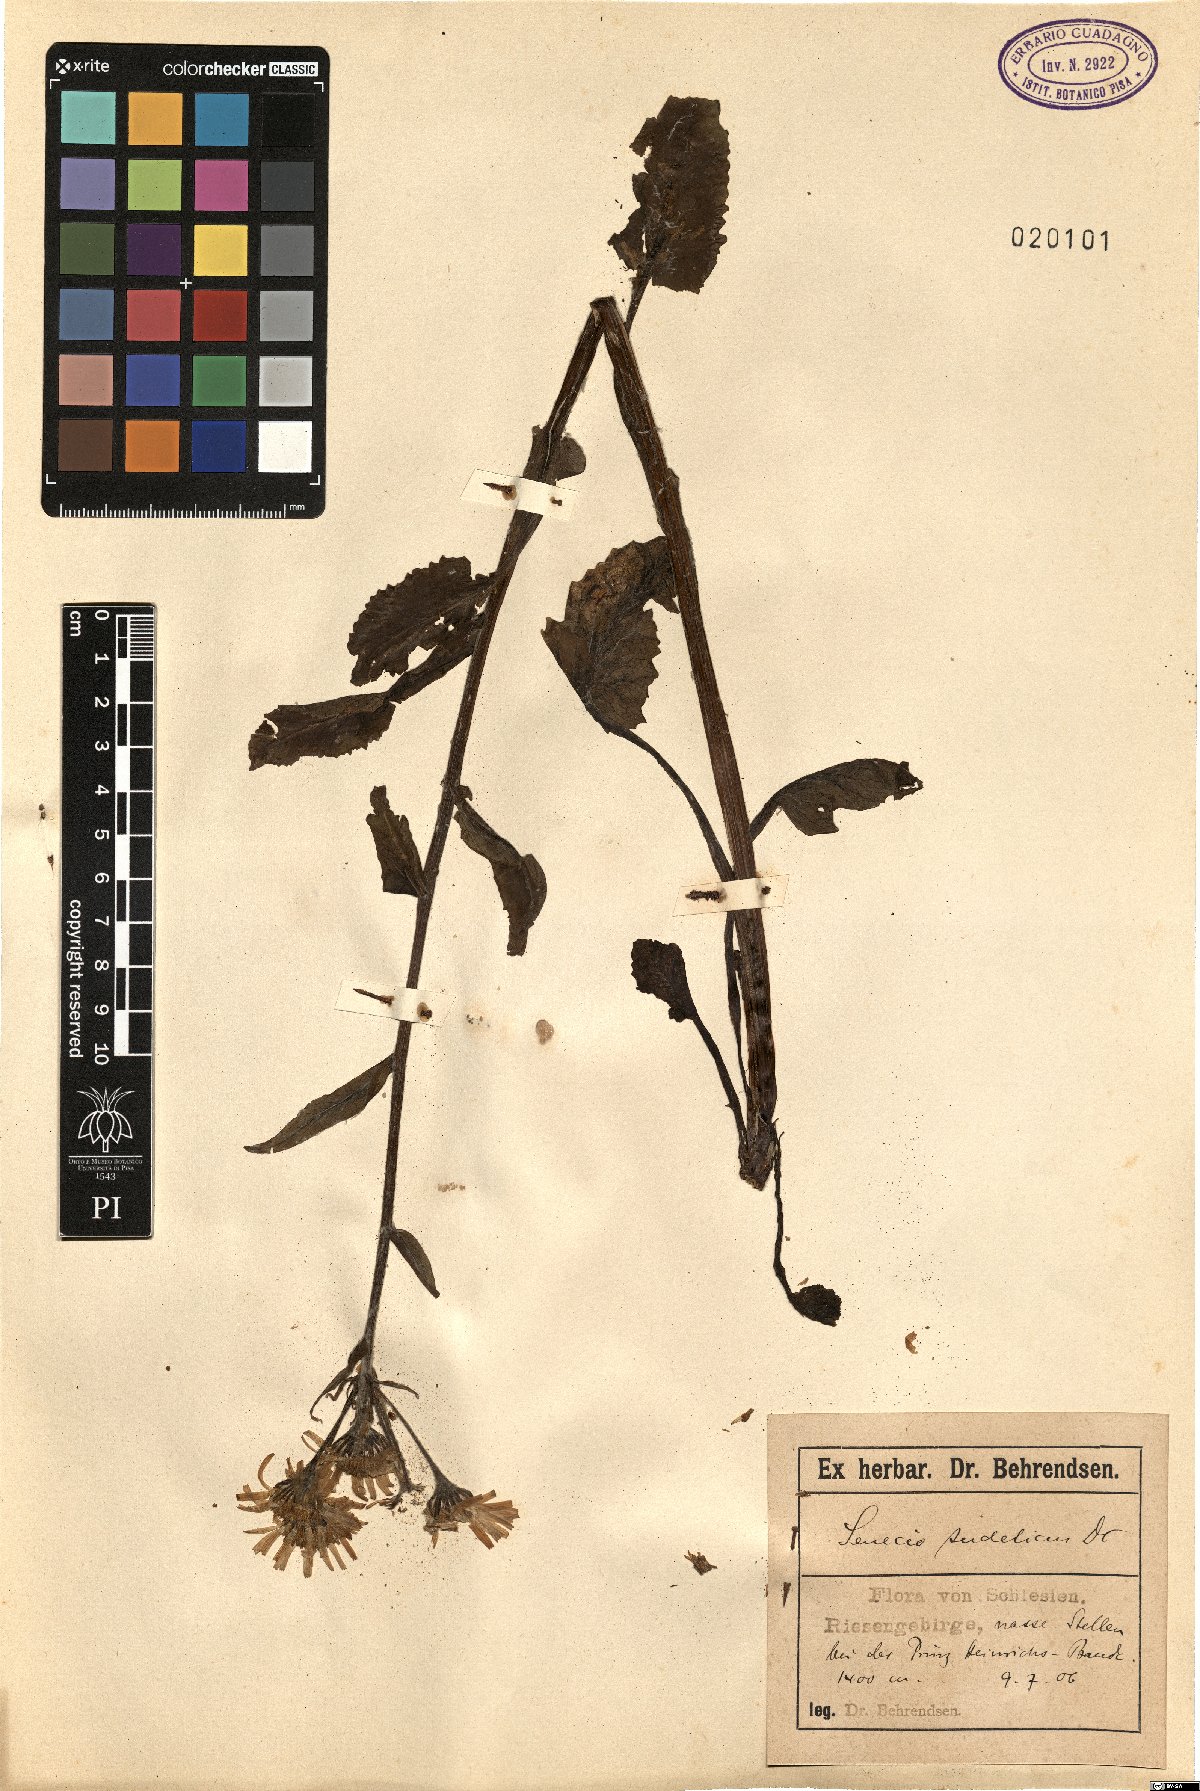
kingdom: Plantae
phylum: Tracheophyta
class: Magnoliopsida
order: Asterales
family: Asteraceae
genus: Tephroseris
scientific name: Tephroseris crispa
